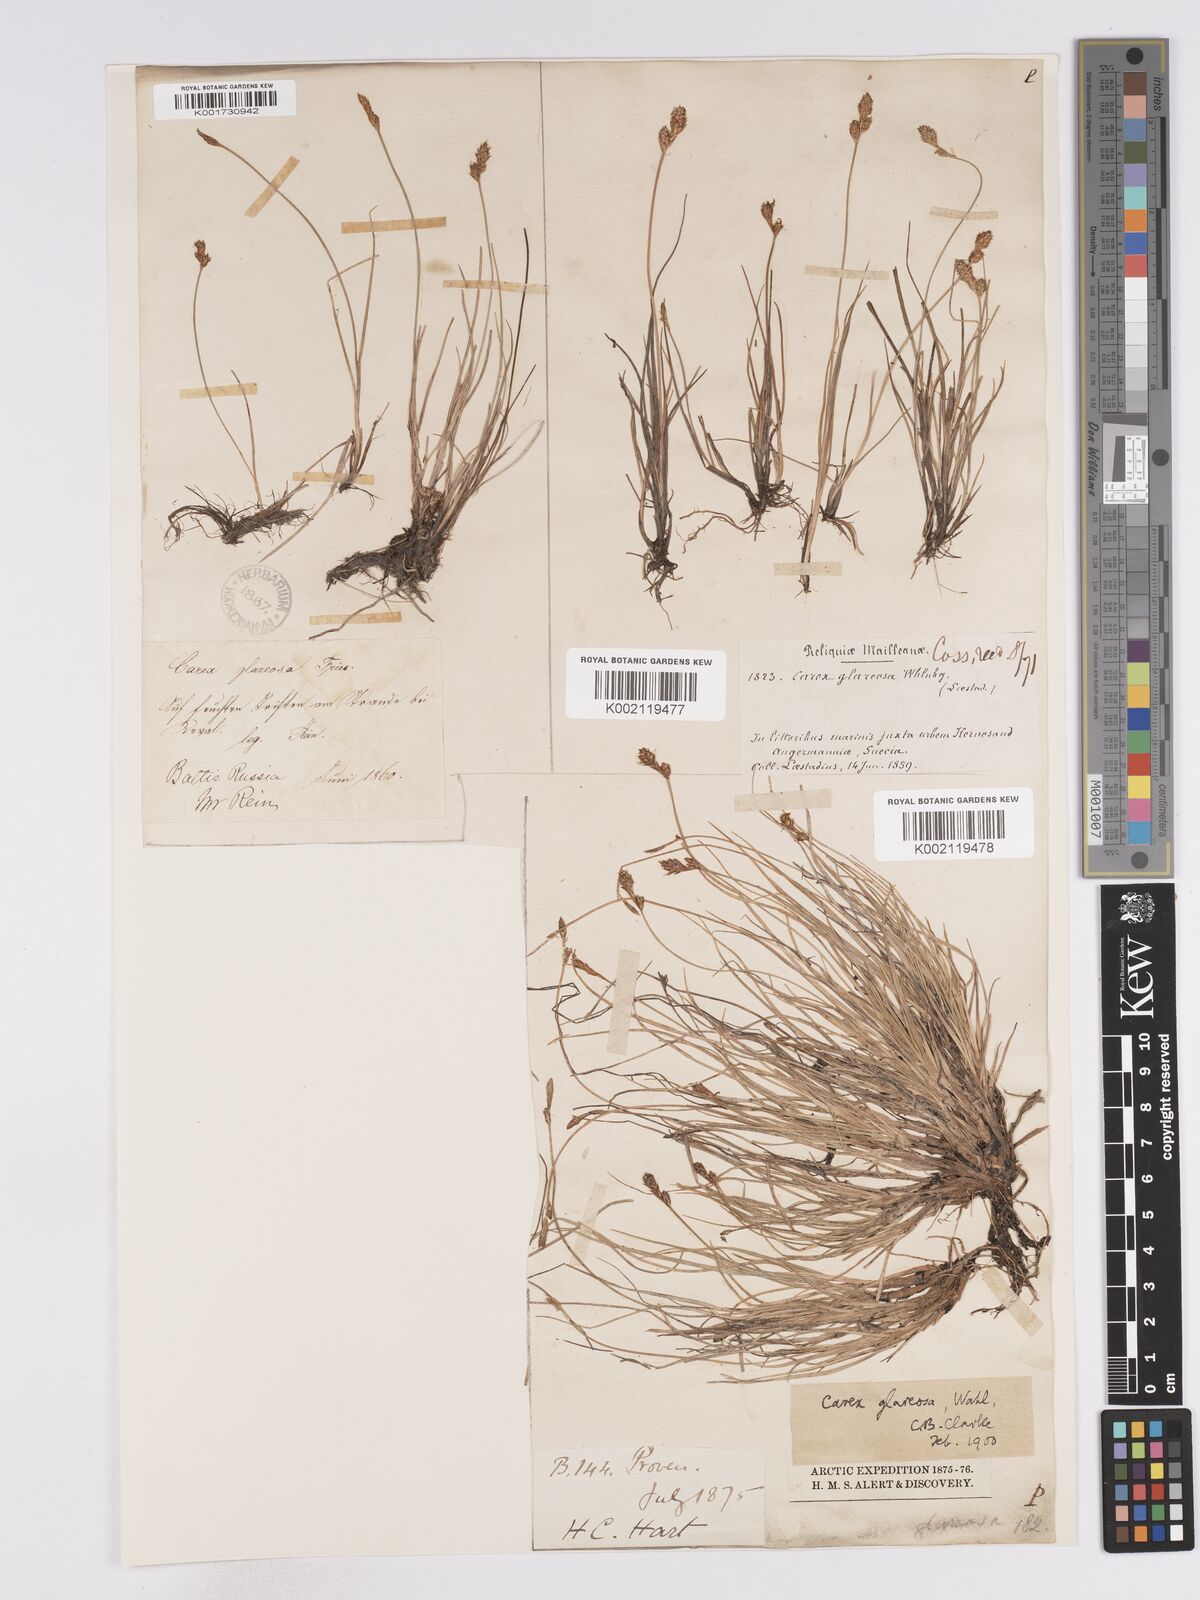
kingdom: Plantae
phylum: Tracheophyta
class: Liliopsida
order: Poales
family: Cyperaceae
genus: Carex
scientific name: Carex glareosa
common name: Clustered sedge
